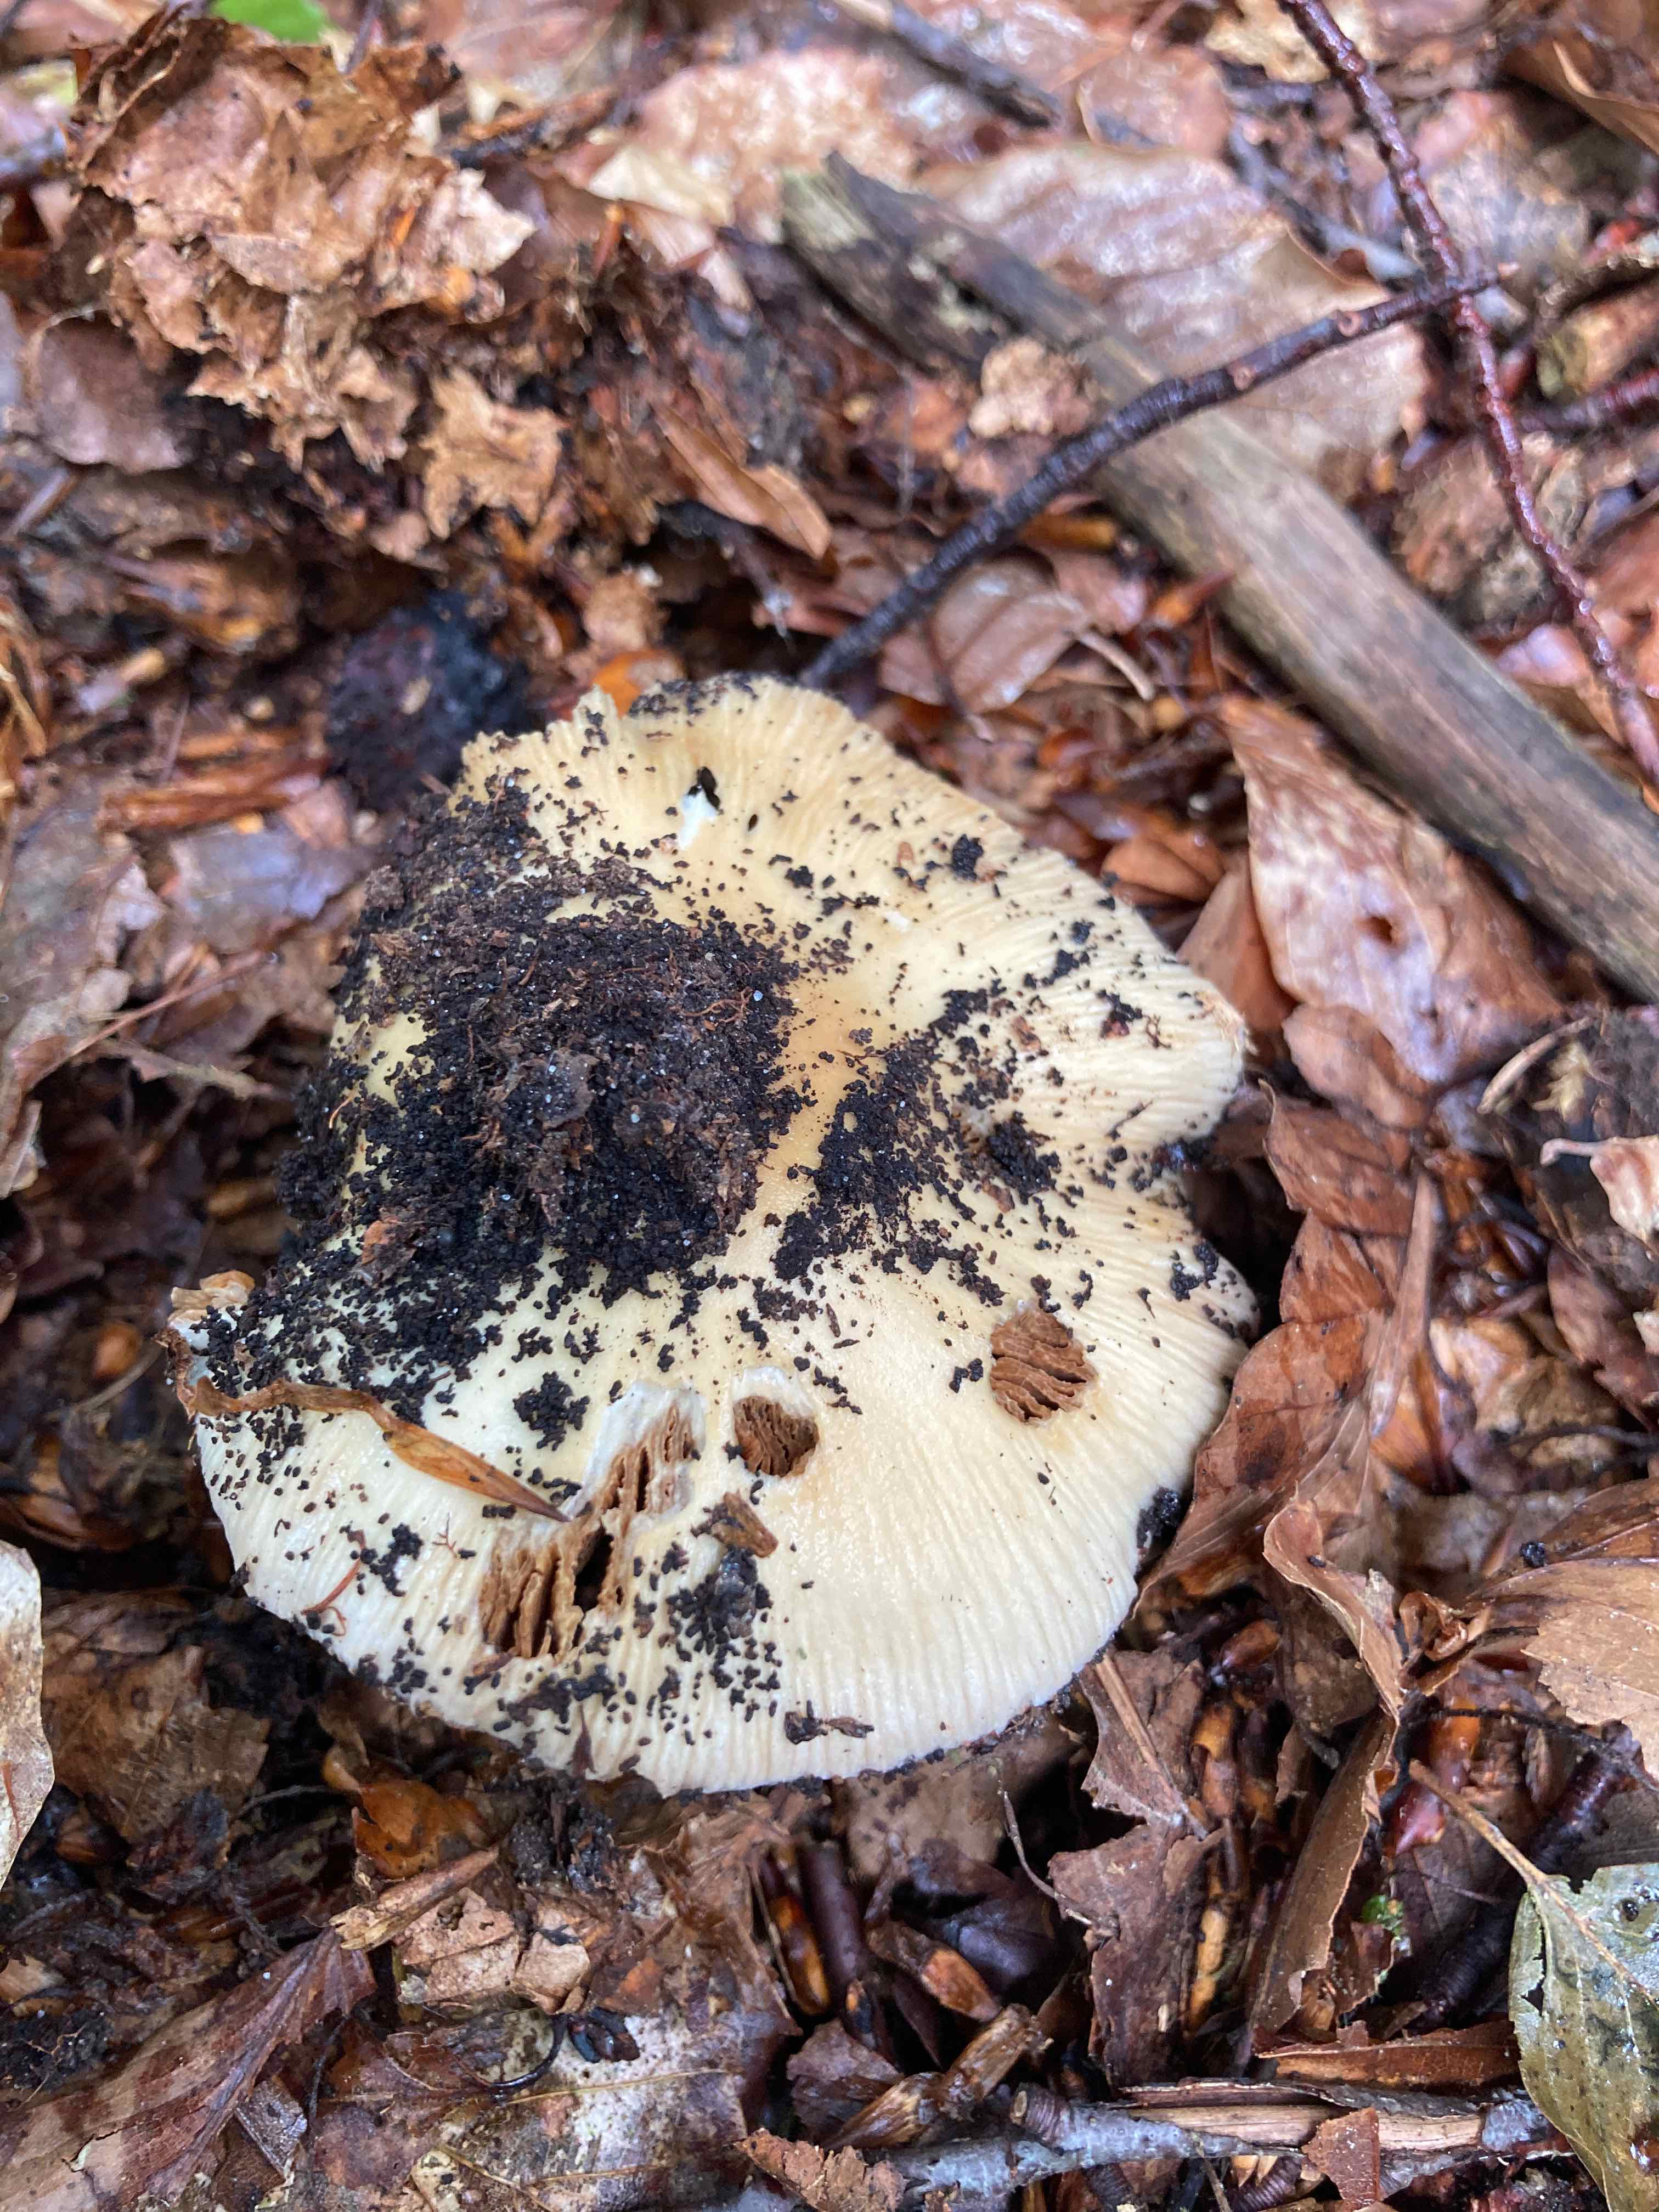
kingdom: Fungi
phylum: Basidiomycota
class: Agaricomycetes
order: Agaricales
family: Cortinariaceae
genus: Cortinarius
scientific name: Cortinarius elatior
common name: høj slørhat
